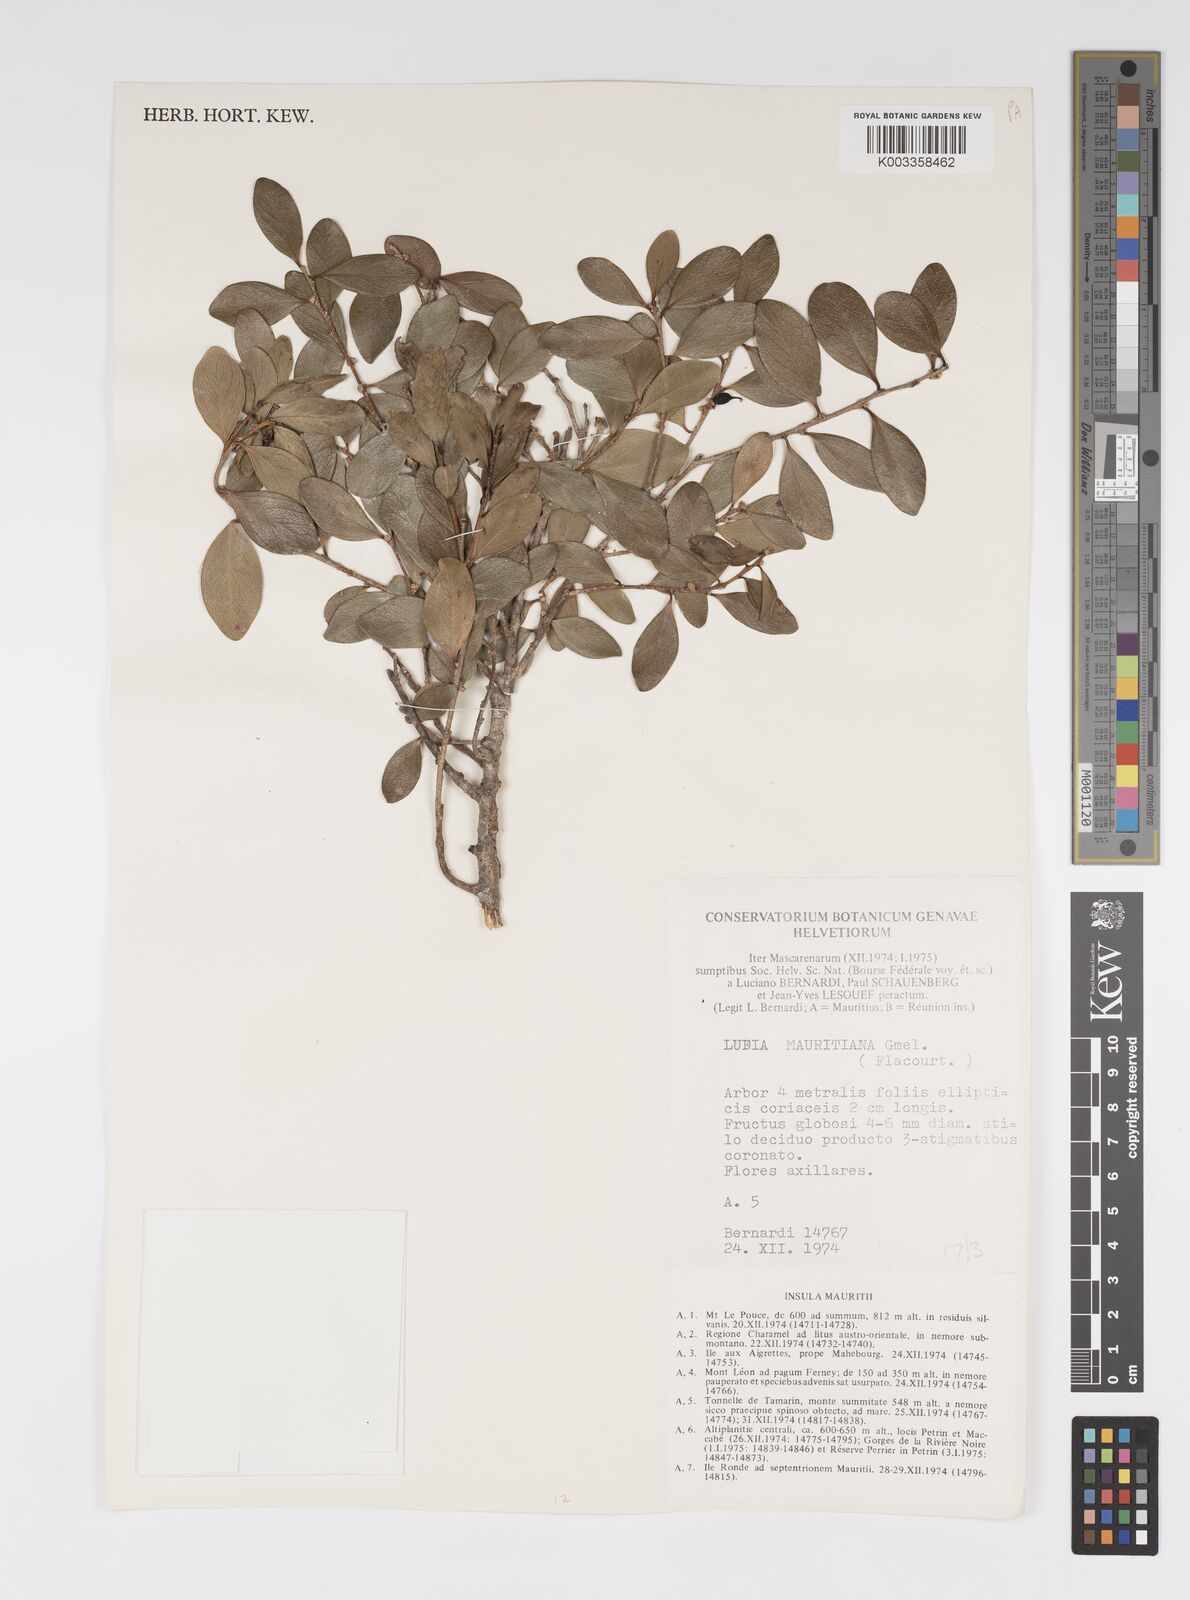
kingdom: Plantae
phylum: Tracheophyta
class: Magnoliopsida
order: Malpighiales
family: Salicaceae
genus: Ludia
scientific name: Ludia mauritiana
